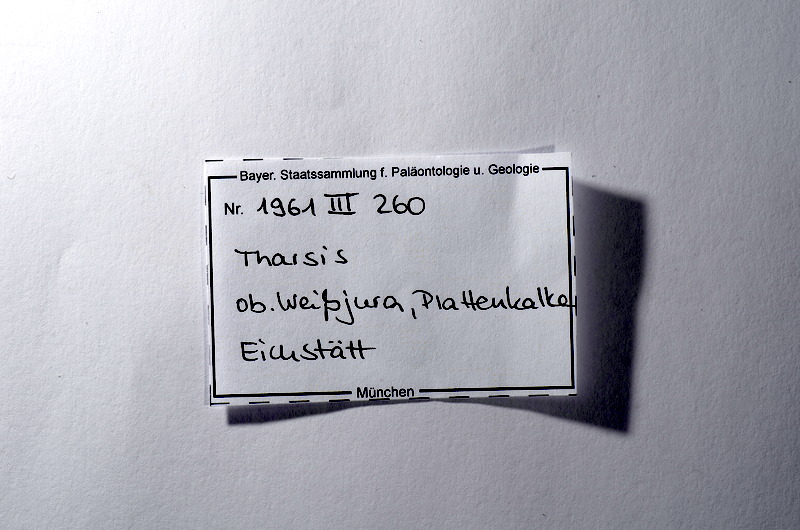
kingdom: Animalia
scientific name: Animalia
